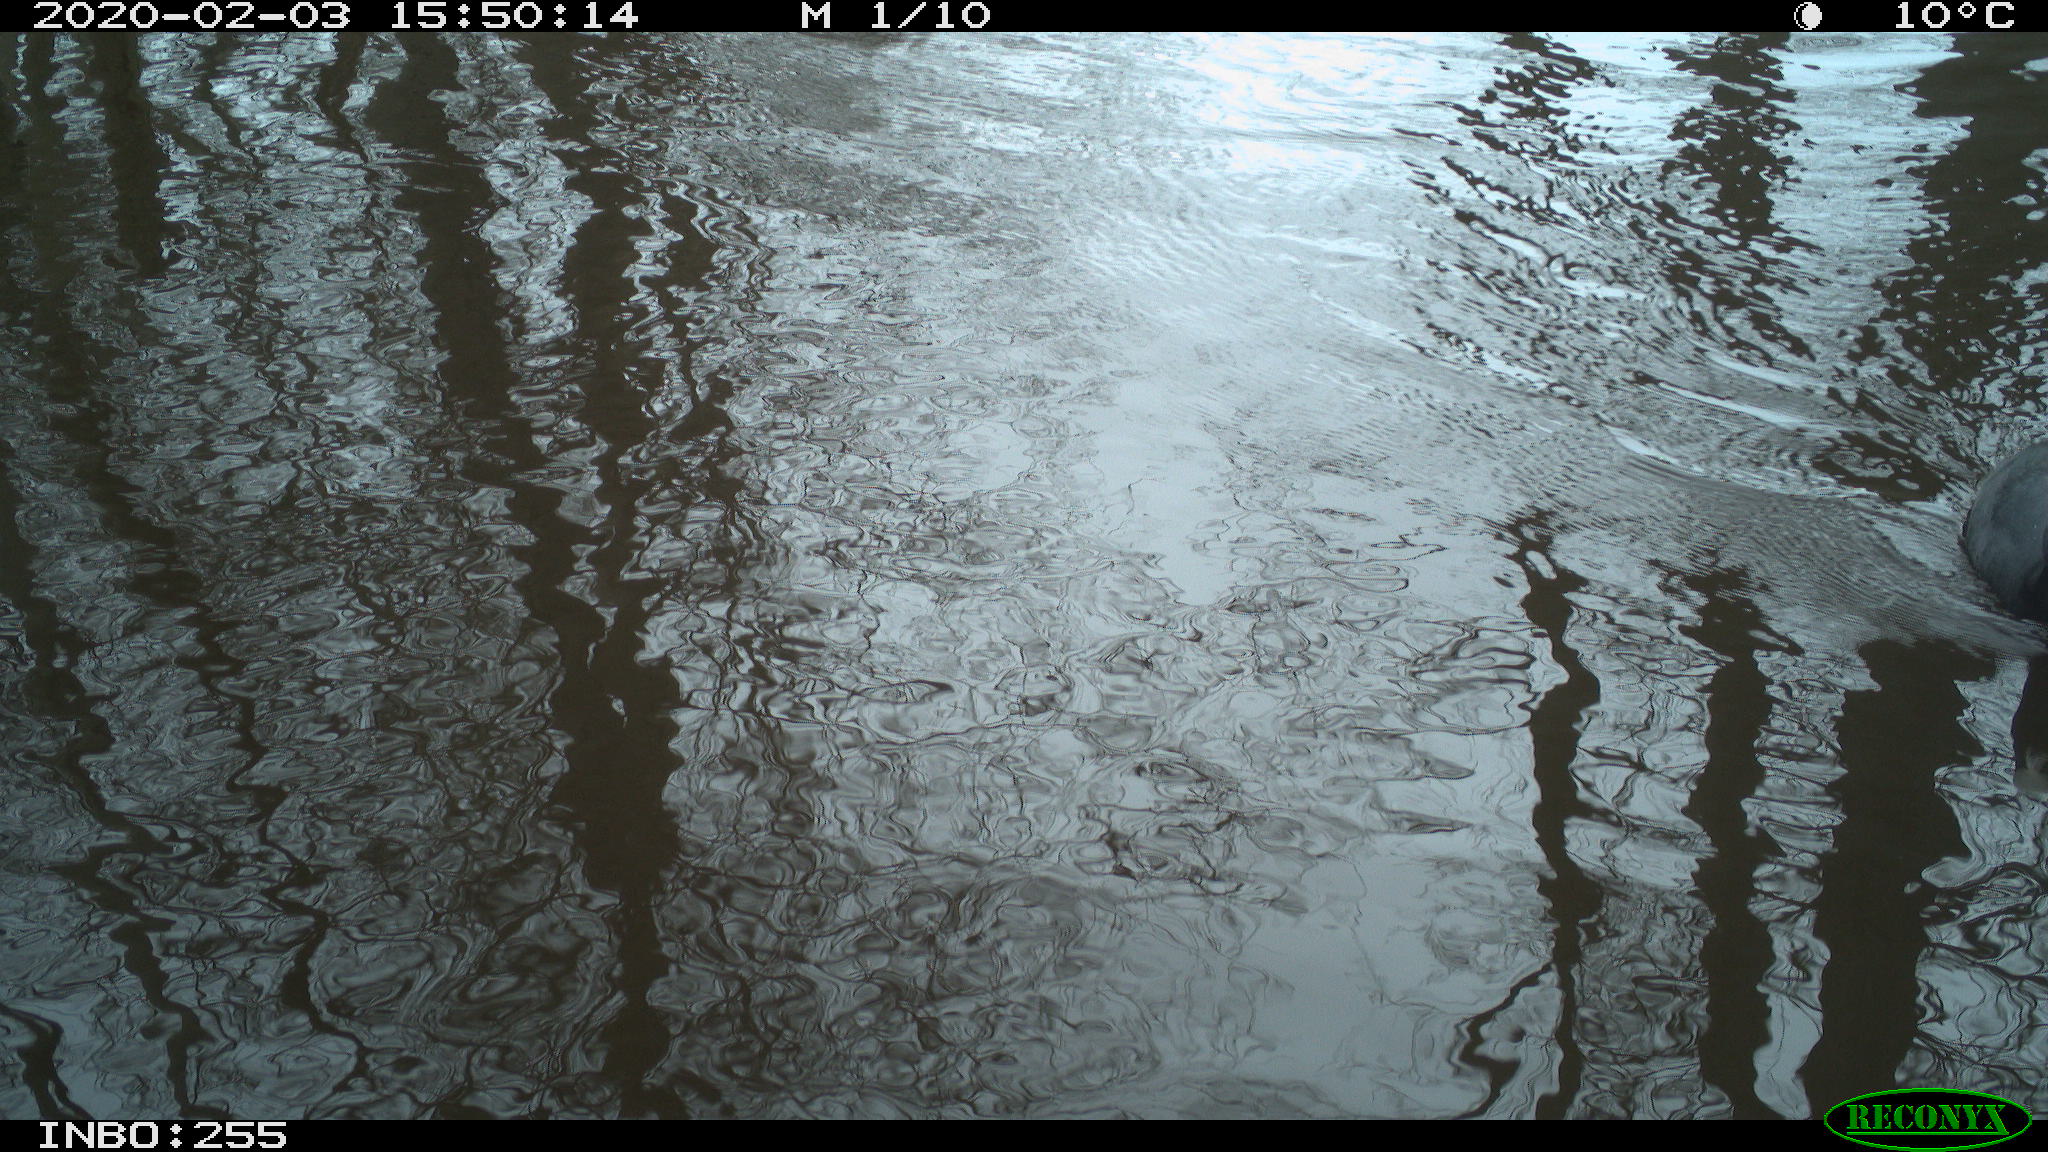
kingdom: Animalia
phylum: Chordata
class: Aves
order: Gruiformes
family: Rallidae
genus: Fulica
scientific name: Fulica atra
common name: Eurasian coot
